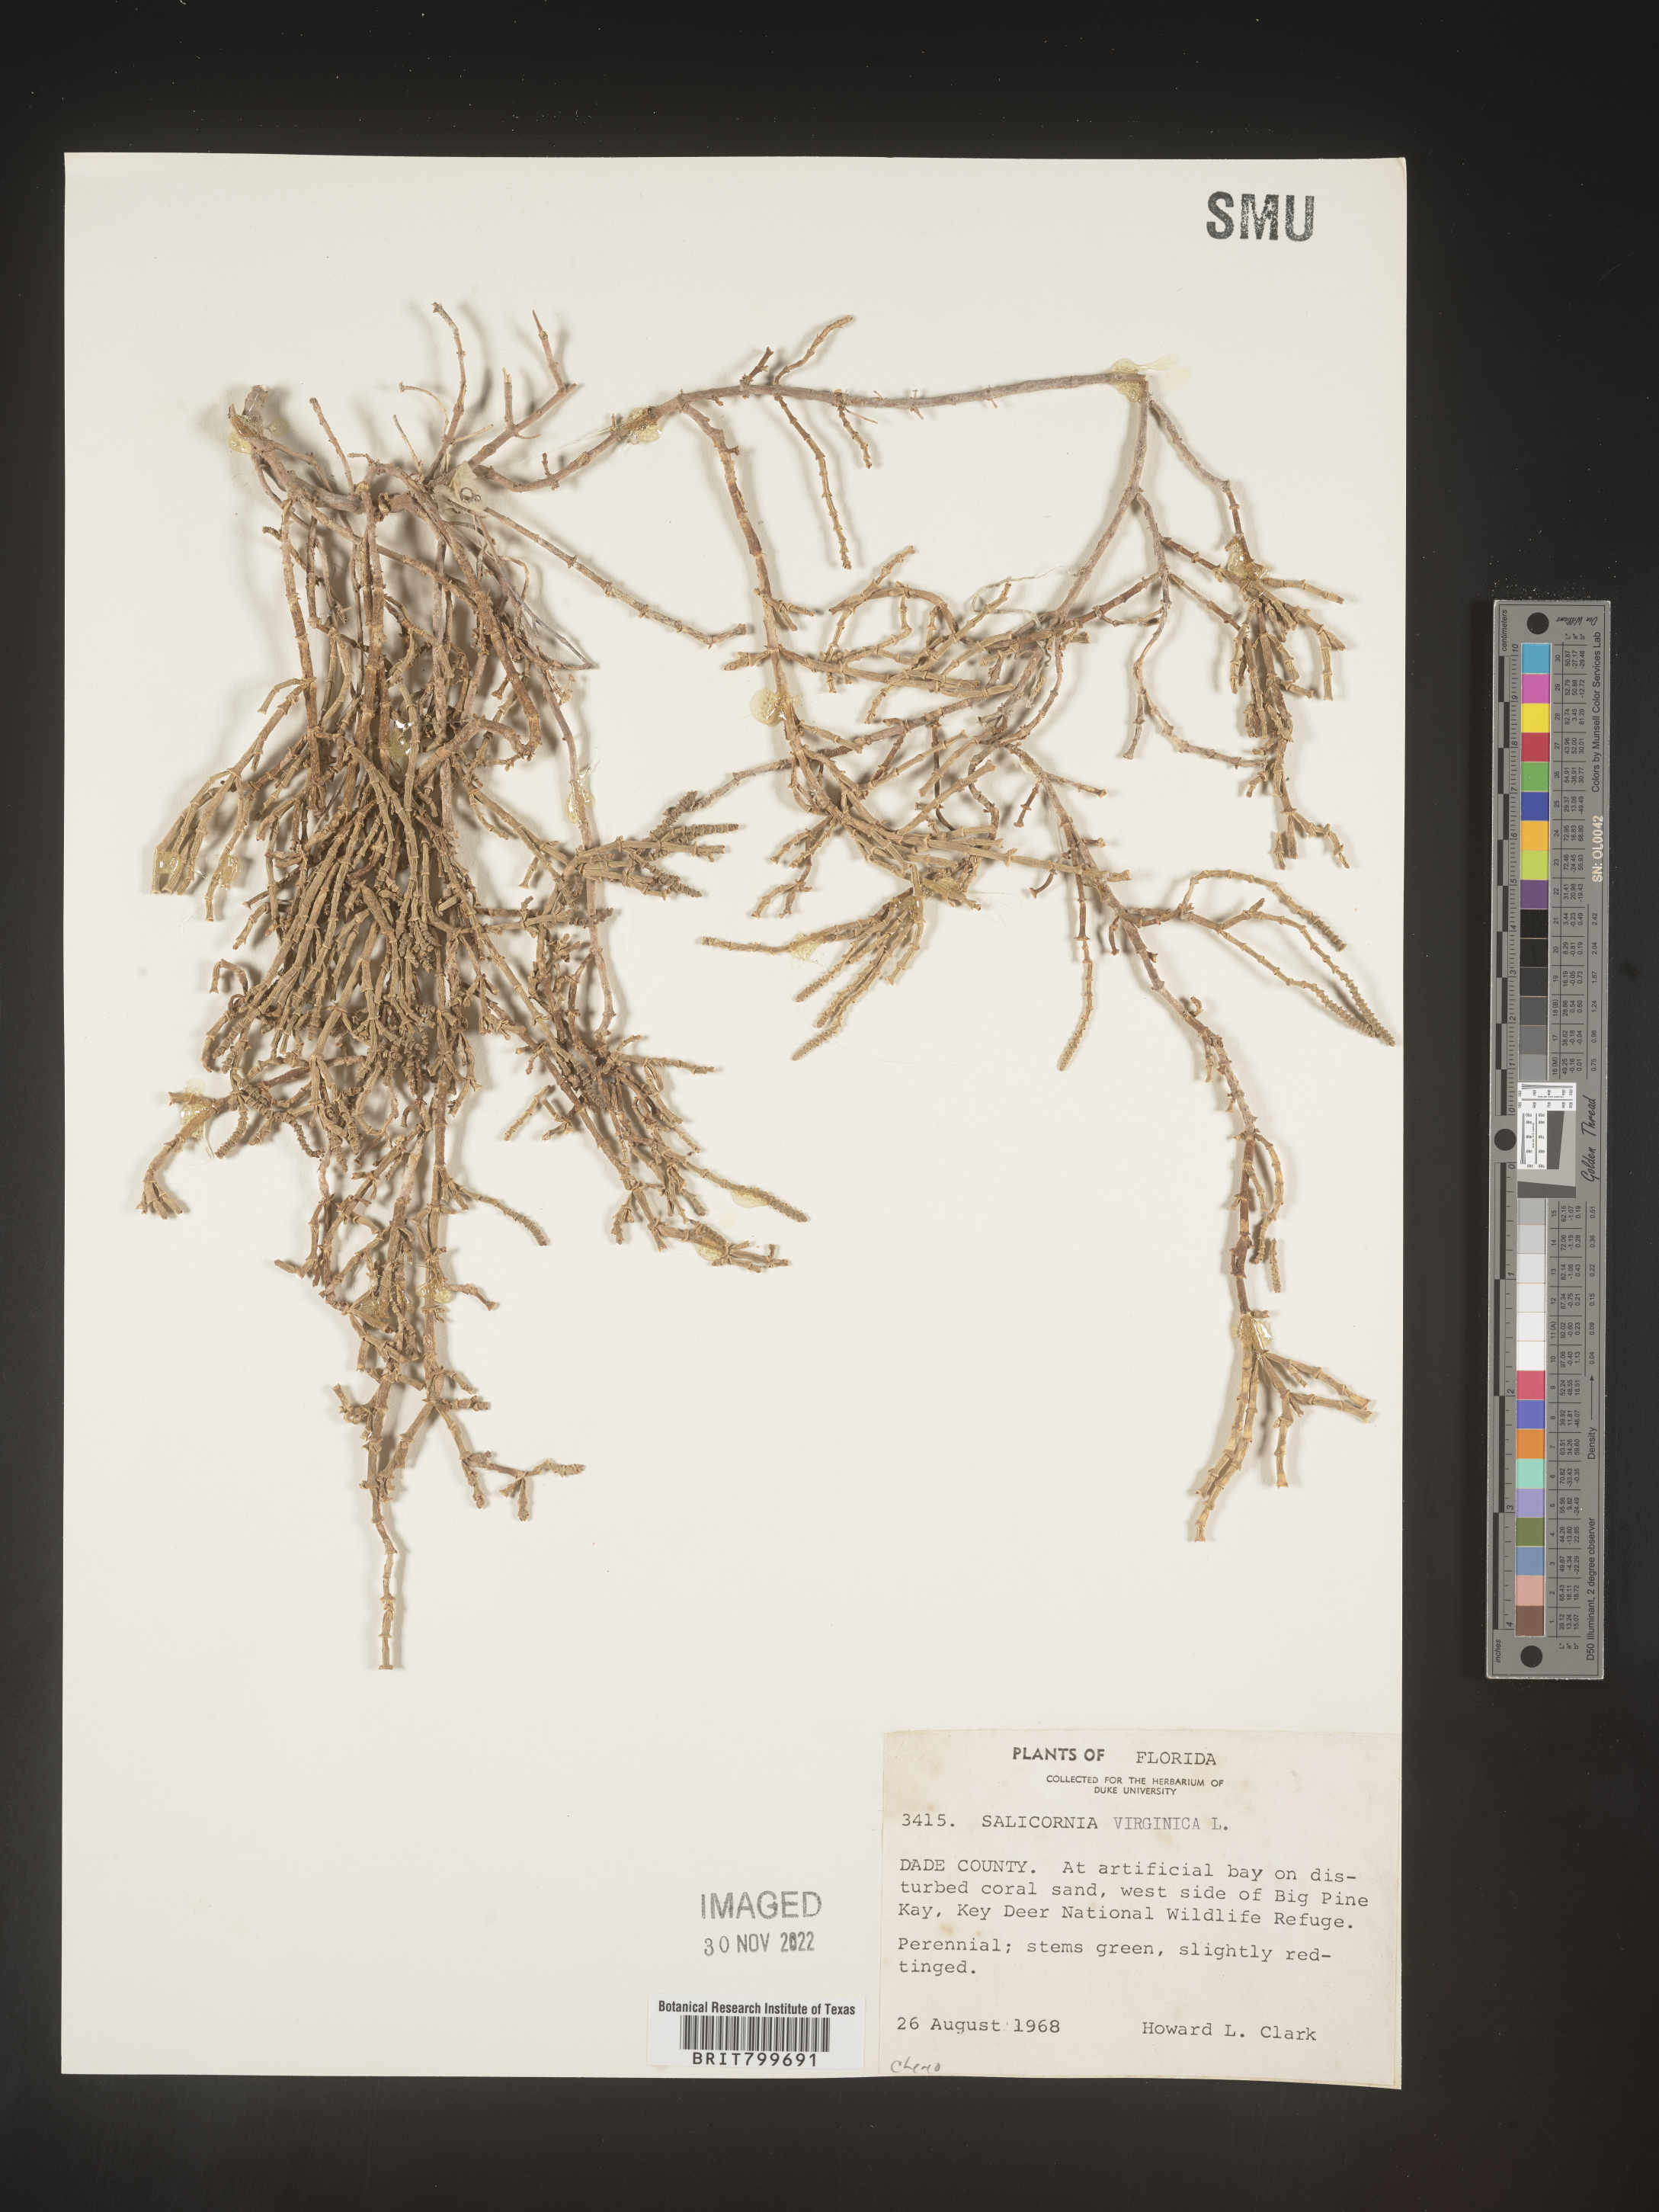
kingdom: Plantae
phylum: Tracheophyta
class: Magnoliopsida
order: Caryophyllales
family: Amaranthaceae
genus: Salicornia
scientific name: Salicornia virginica
